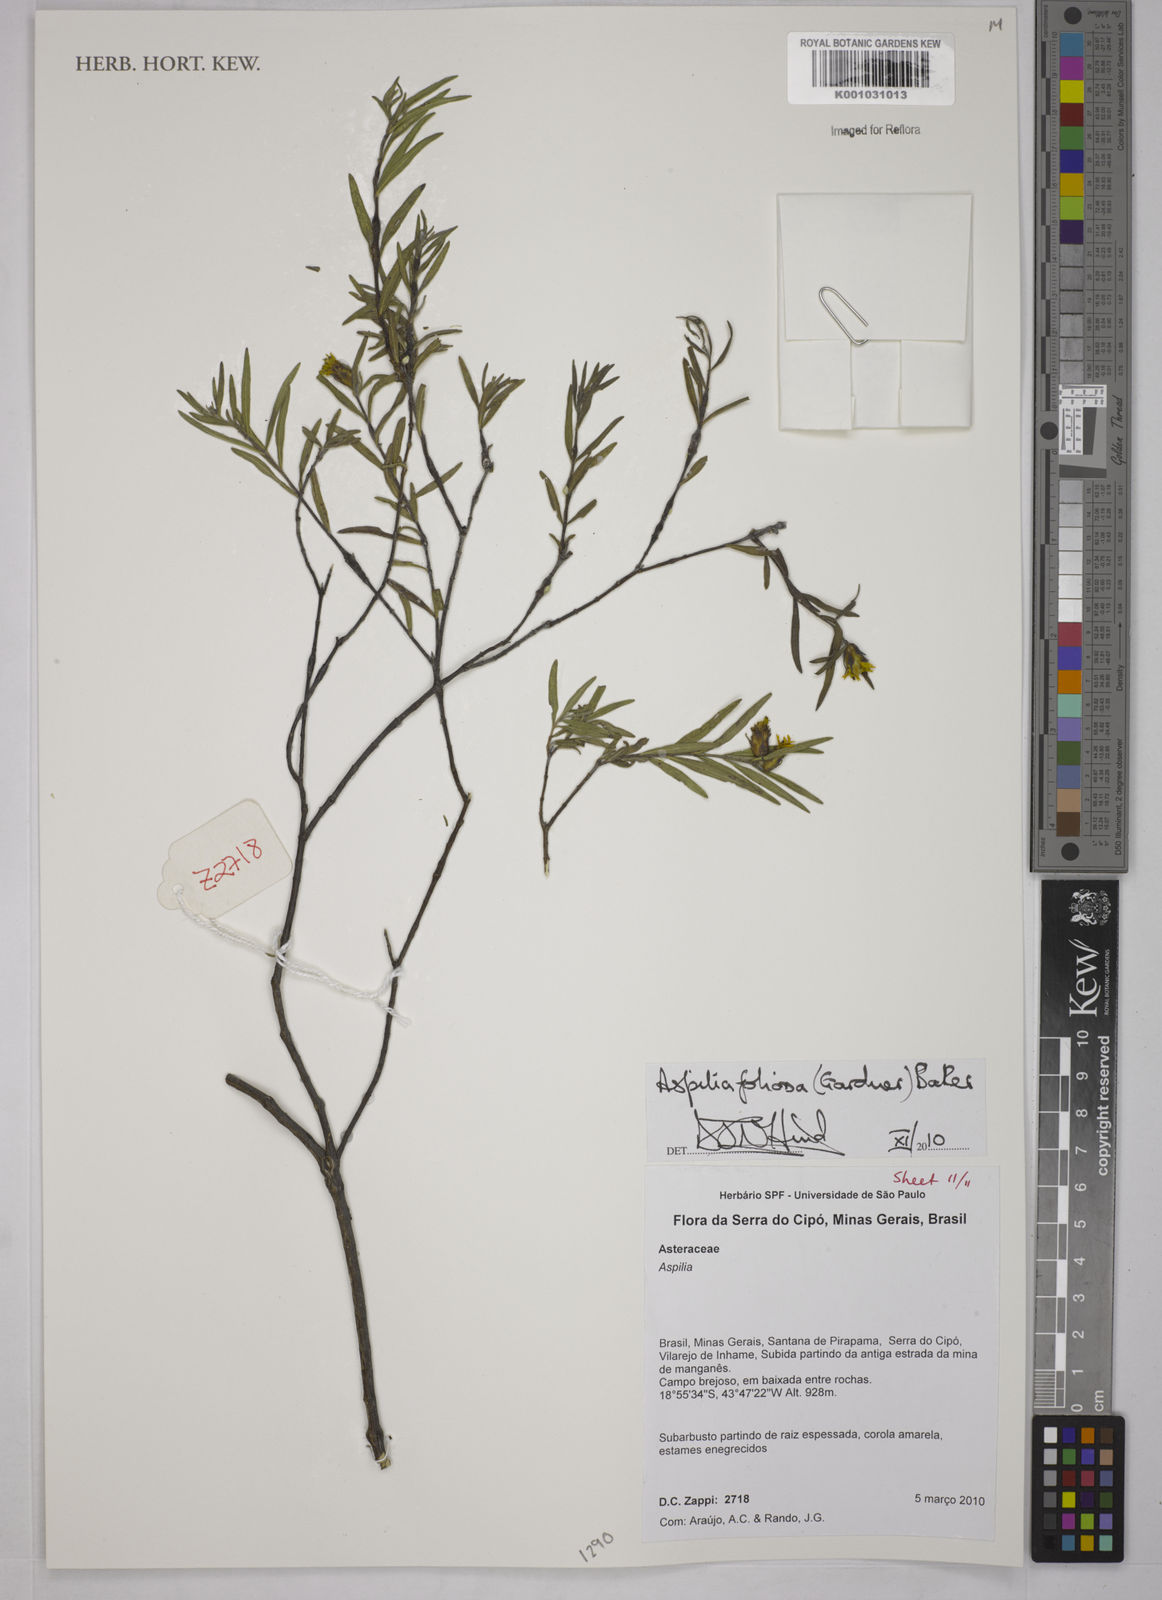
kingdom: Plantae
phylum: Tracheophyta
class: Magnoliopsida
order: Asterales
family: Asteraceae
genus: Aspilia
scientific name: Aspilia
